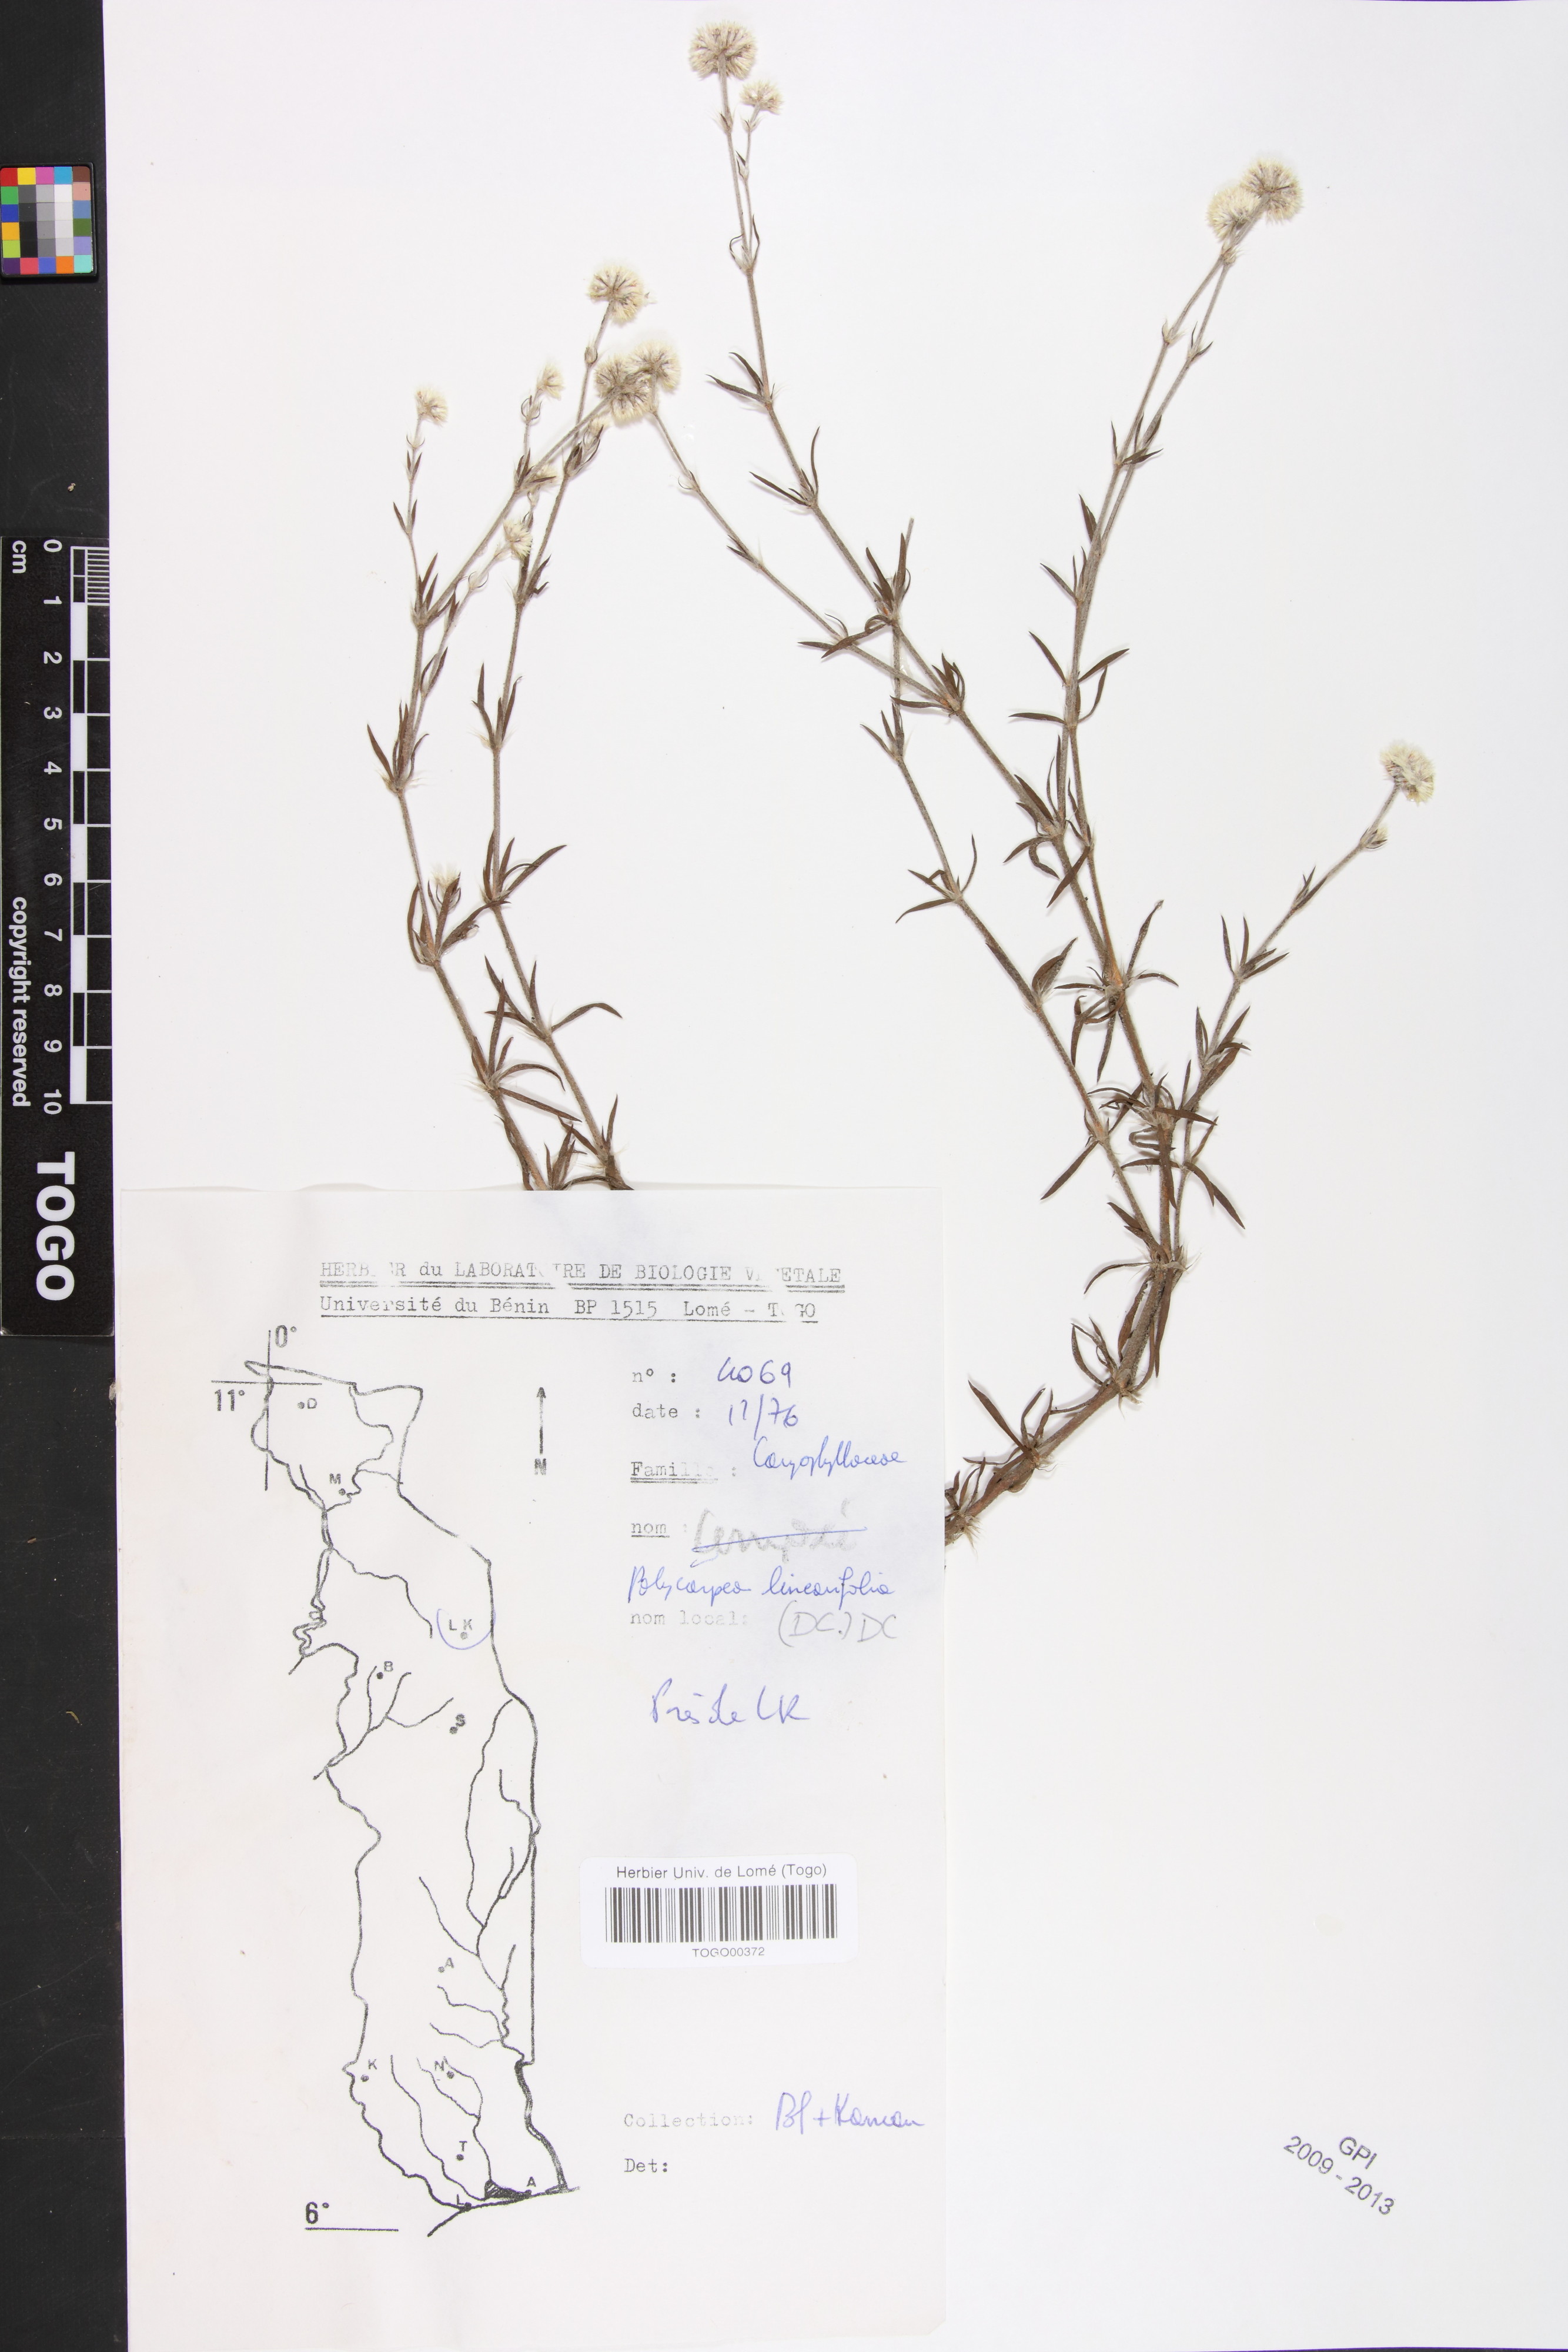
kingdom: Plantae
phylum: Tracheophyta
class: Magnoliopsida
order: Caryophyllales
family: Caryophyllaceae
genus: Polycarpaea
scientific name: Polycarpaea linearifolia
